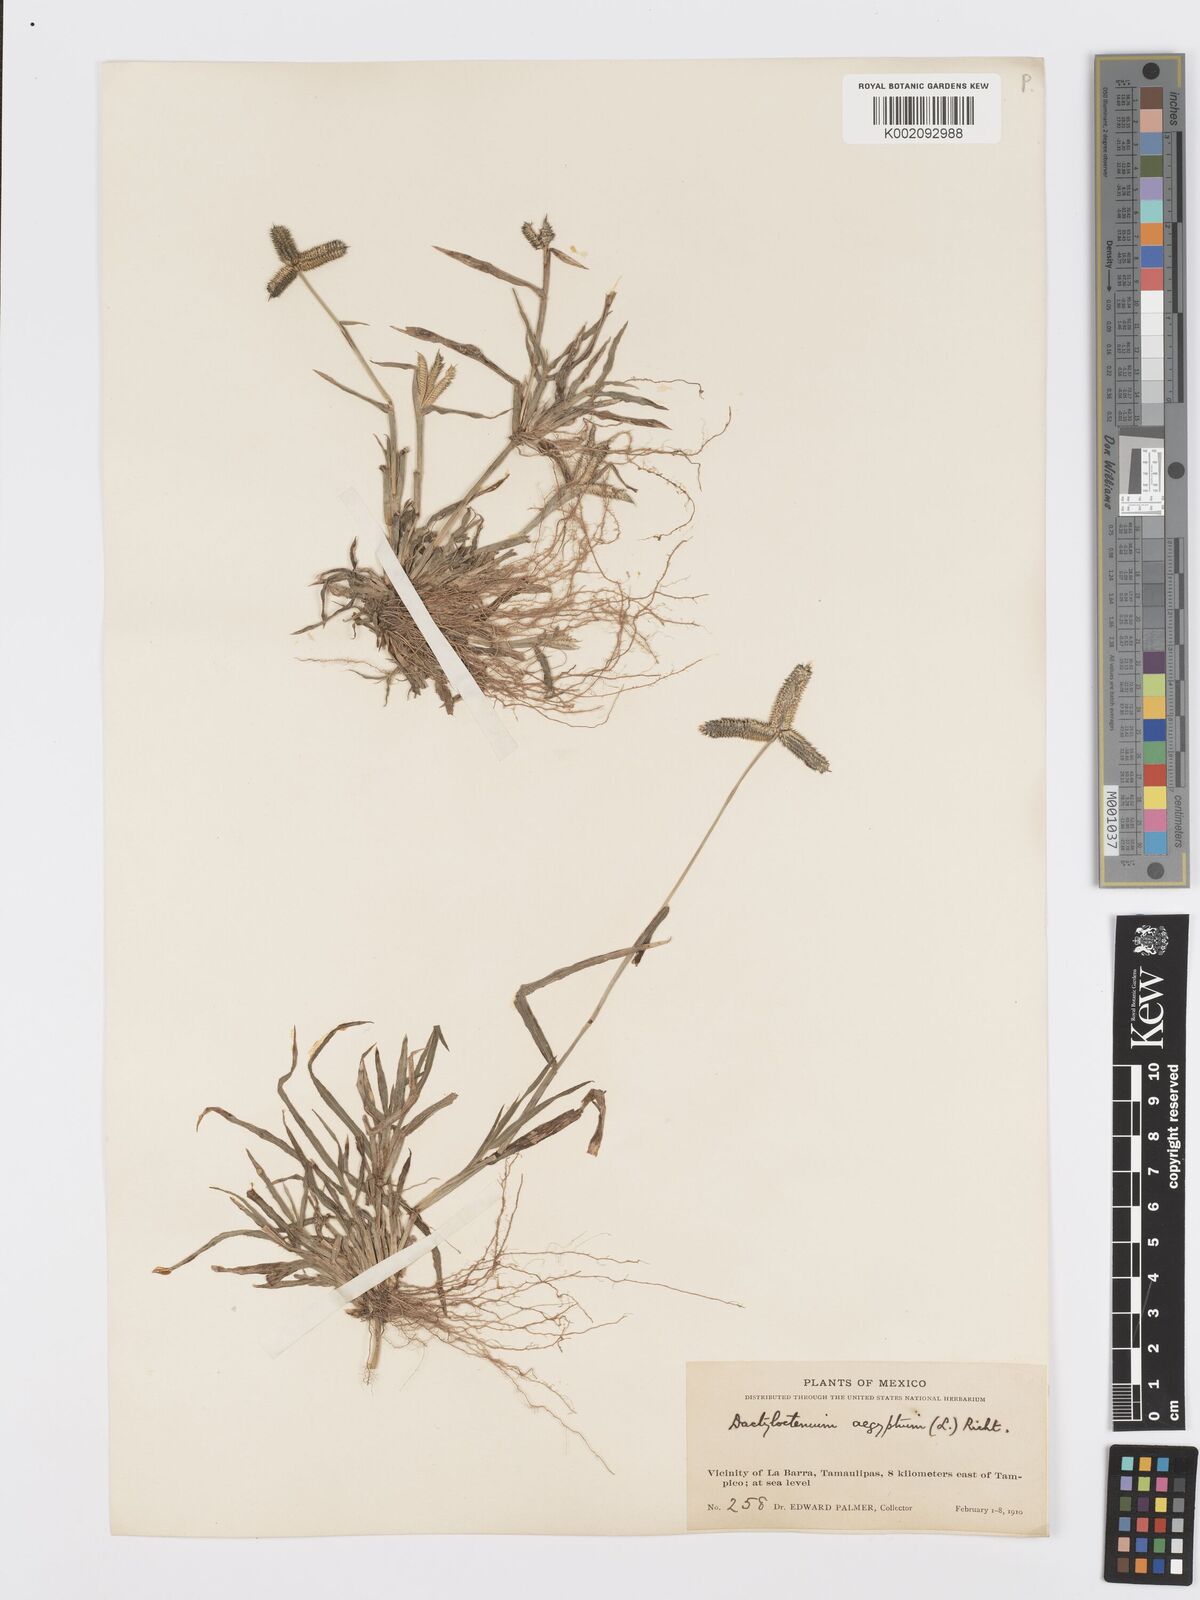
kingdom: Plantae
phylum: Tracheophyta
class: Liliopsida
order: Poales
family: Poaceae
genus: Dactyloctenium
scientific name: Dactyloctenium aegyptium
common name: Egyptian grass
